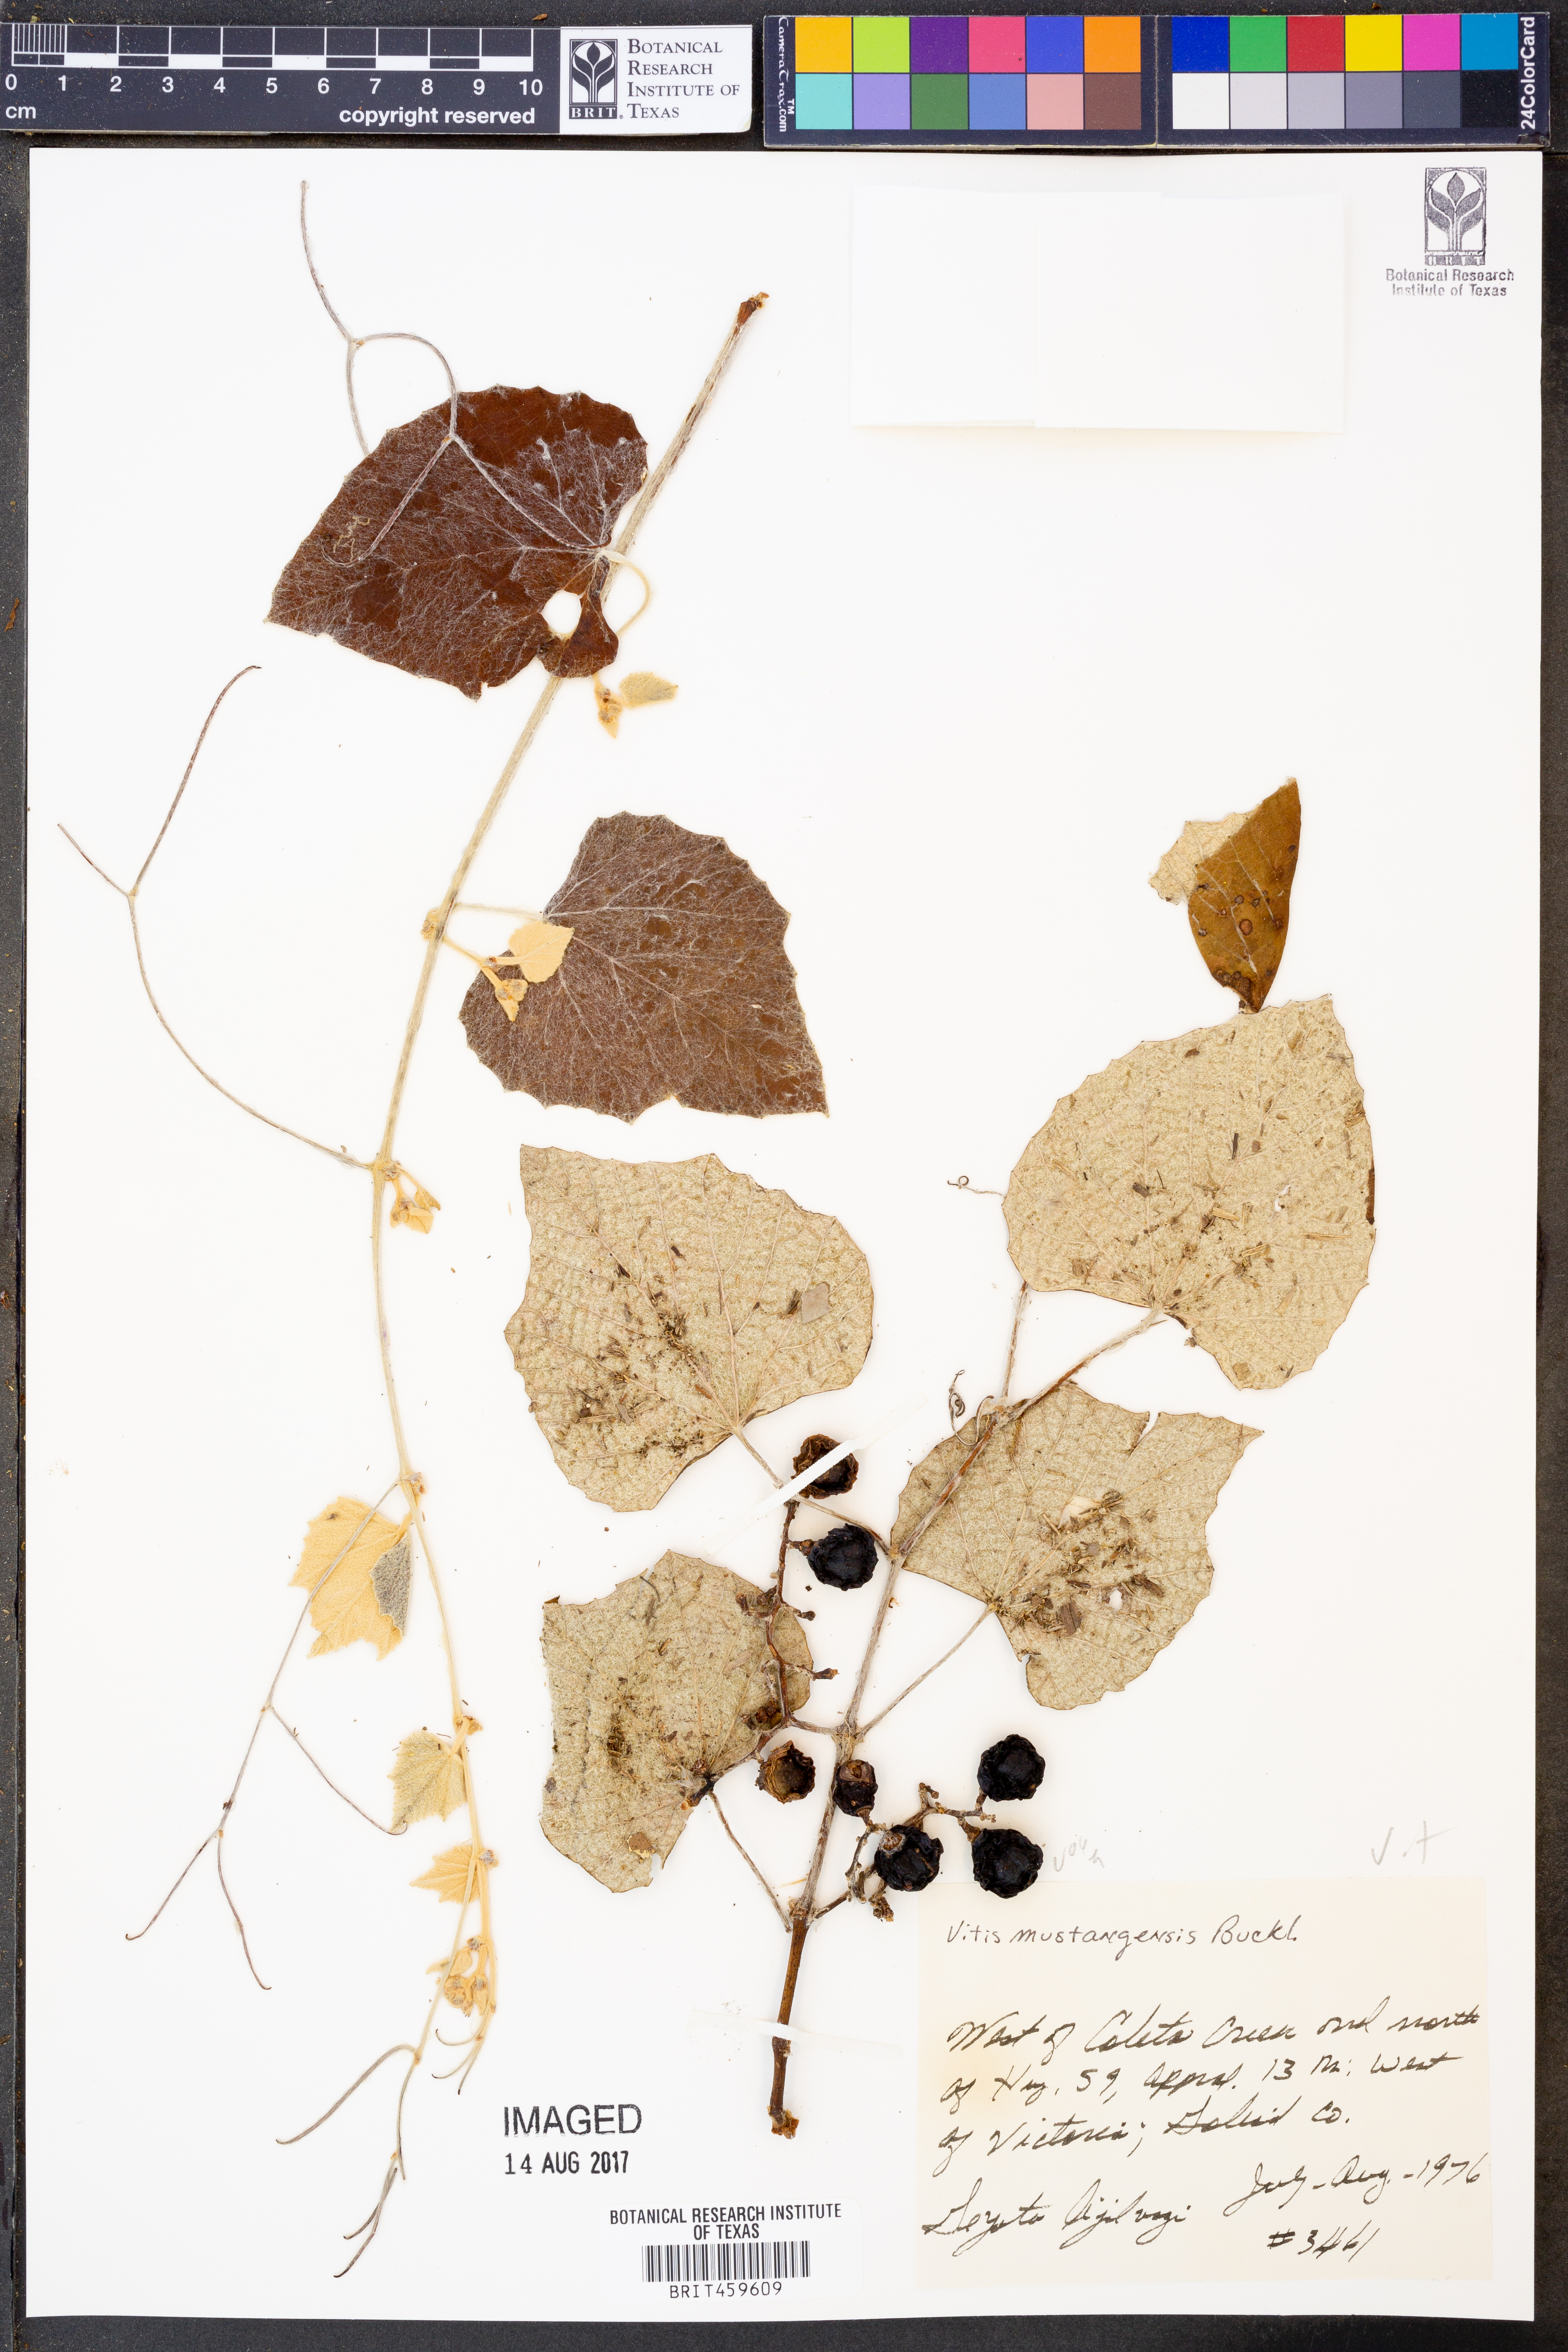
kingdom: Plantae
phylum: Tracheophyta
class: Magnoliopsida
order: Vitales
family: Vitaceae
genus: Vitis
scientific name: Vitis mustangensis
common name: Mustang grape
